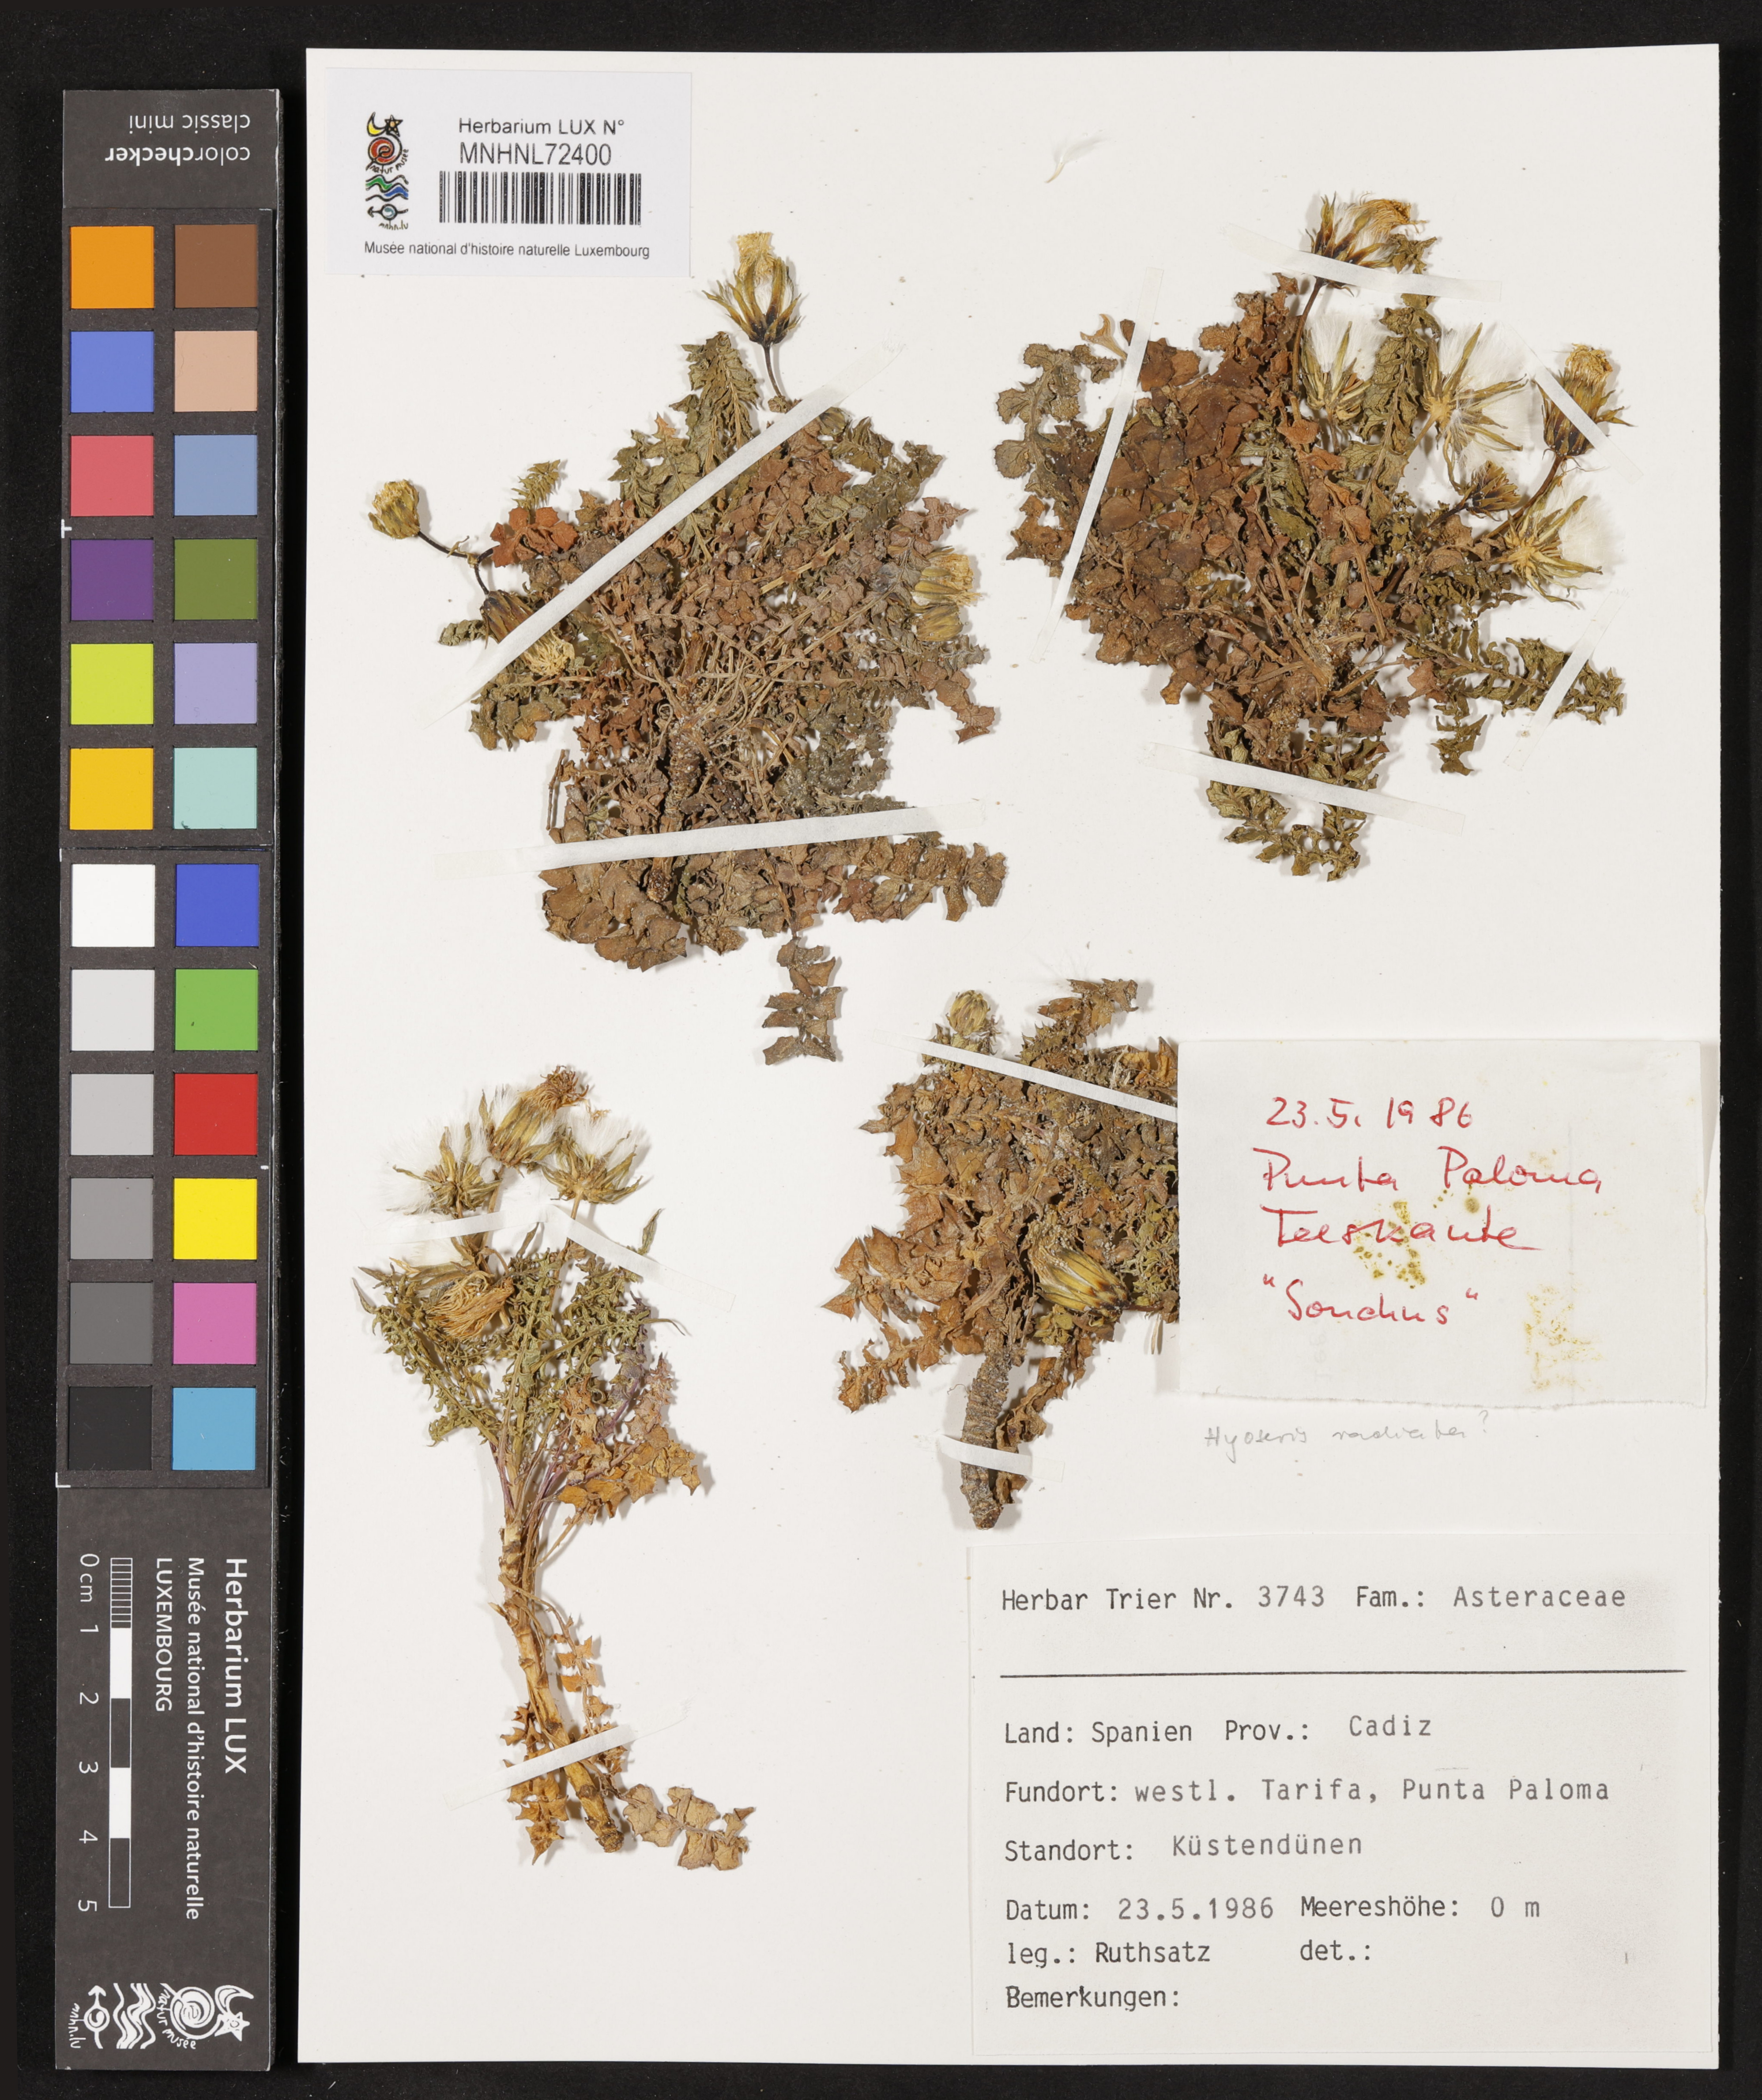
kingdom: Plantae
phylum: Tracheophyta
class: Magnoliopsida
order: Asterales
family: Asteraceae
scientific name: Asteraceae
